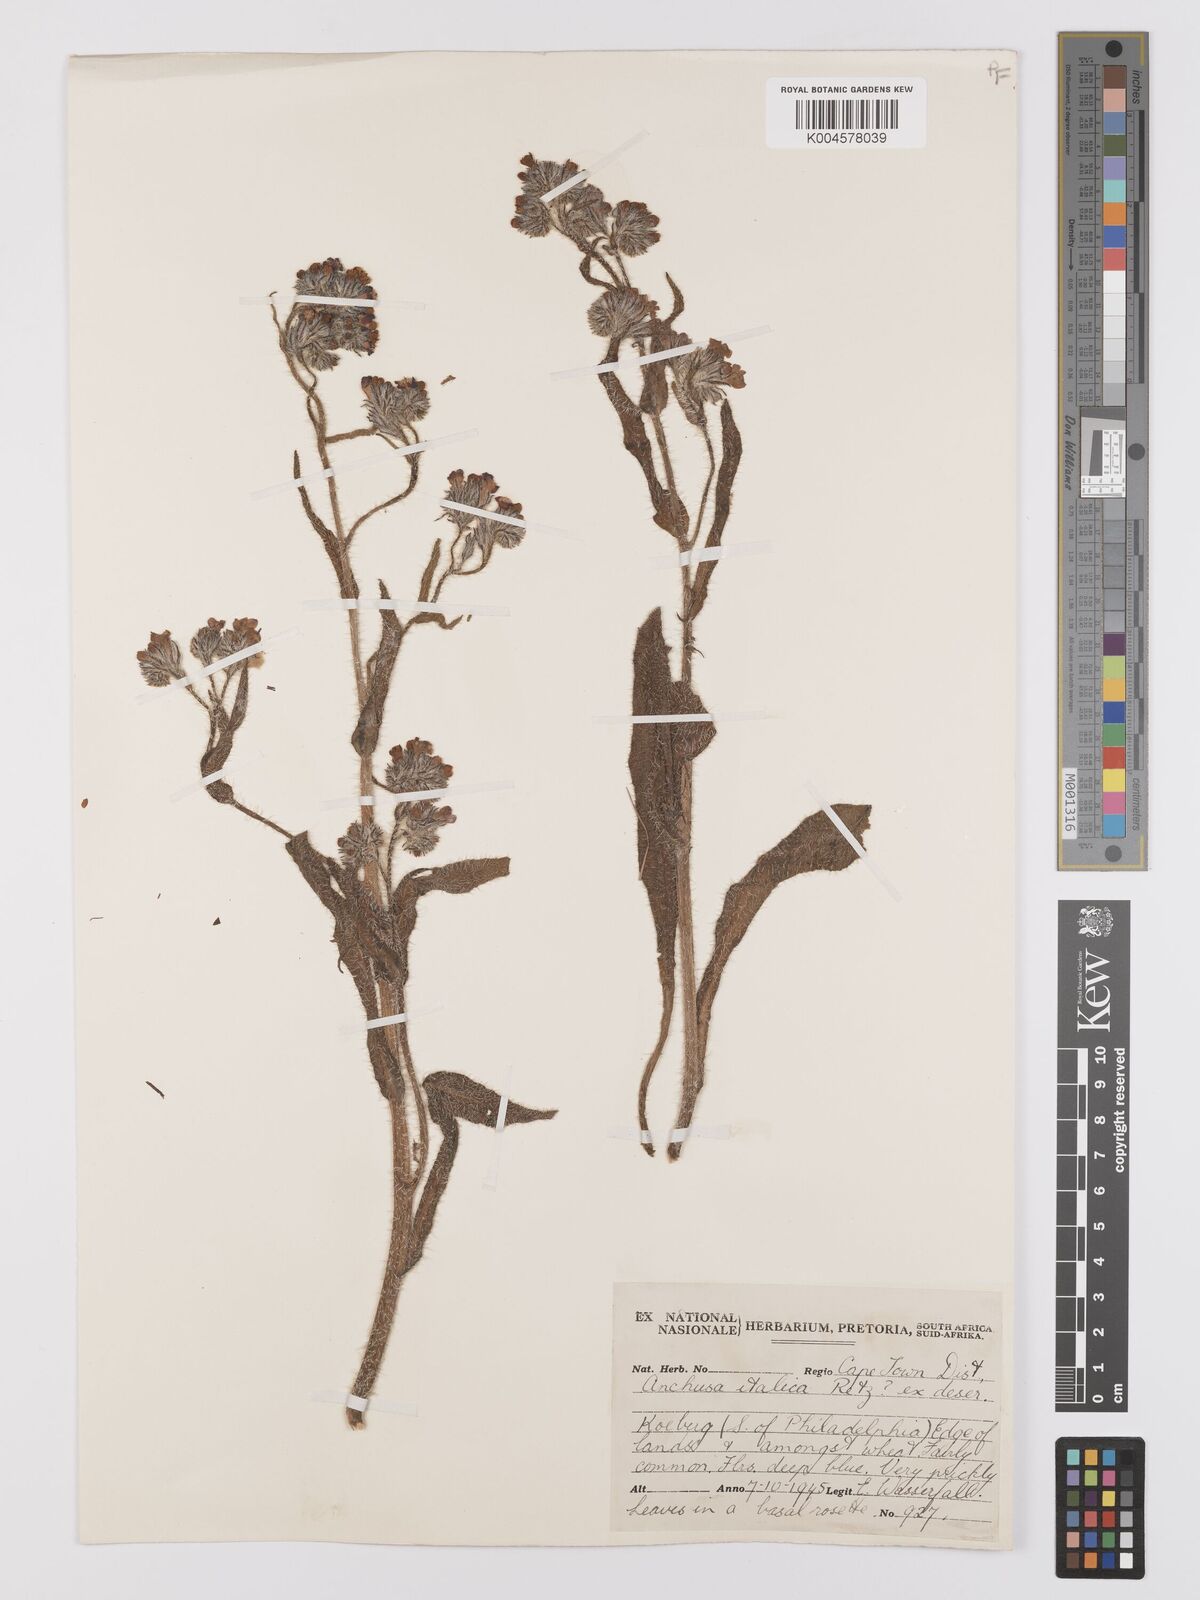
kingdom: Plantae
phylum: Tracheophyta
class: Magnoliopsida
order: Boraginales
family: Boraginaceae
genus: Anchusa
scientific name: Anchusa azurea
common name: Garden anchusa
